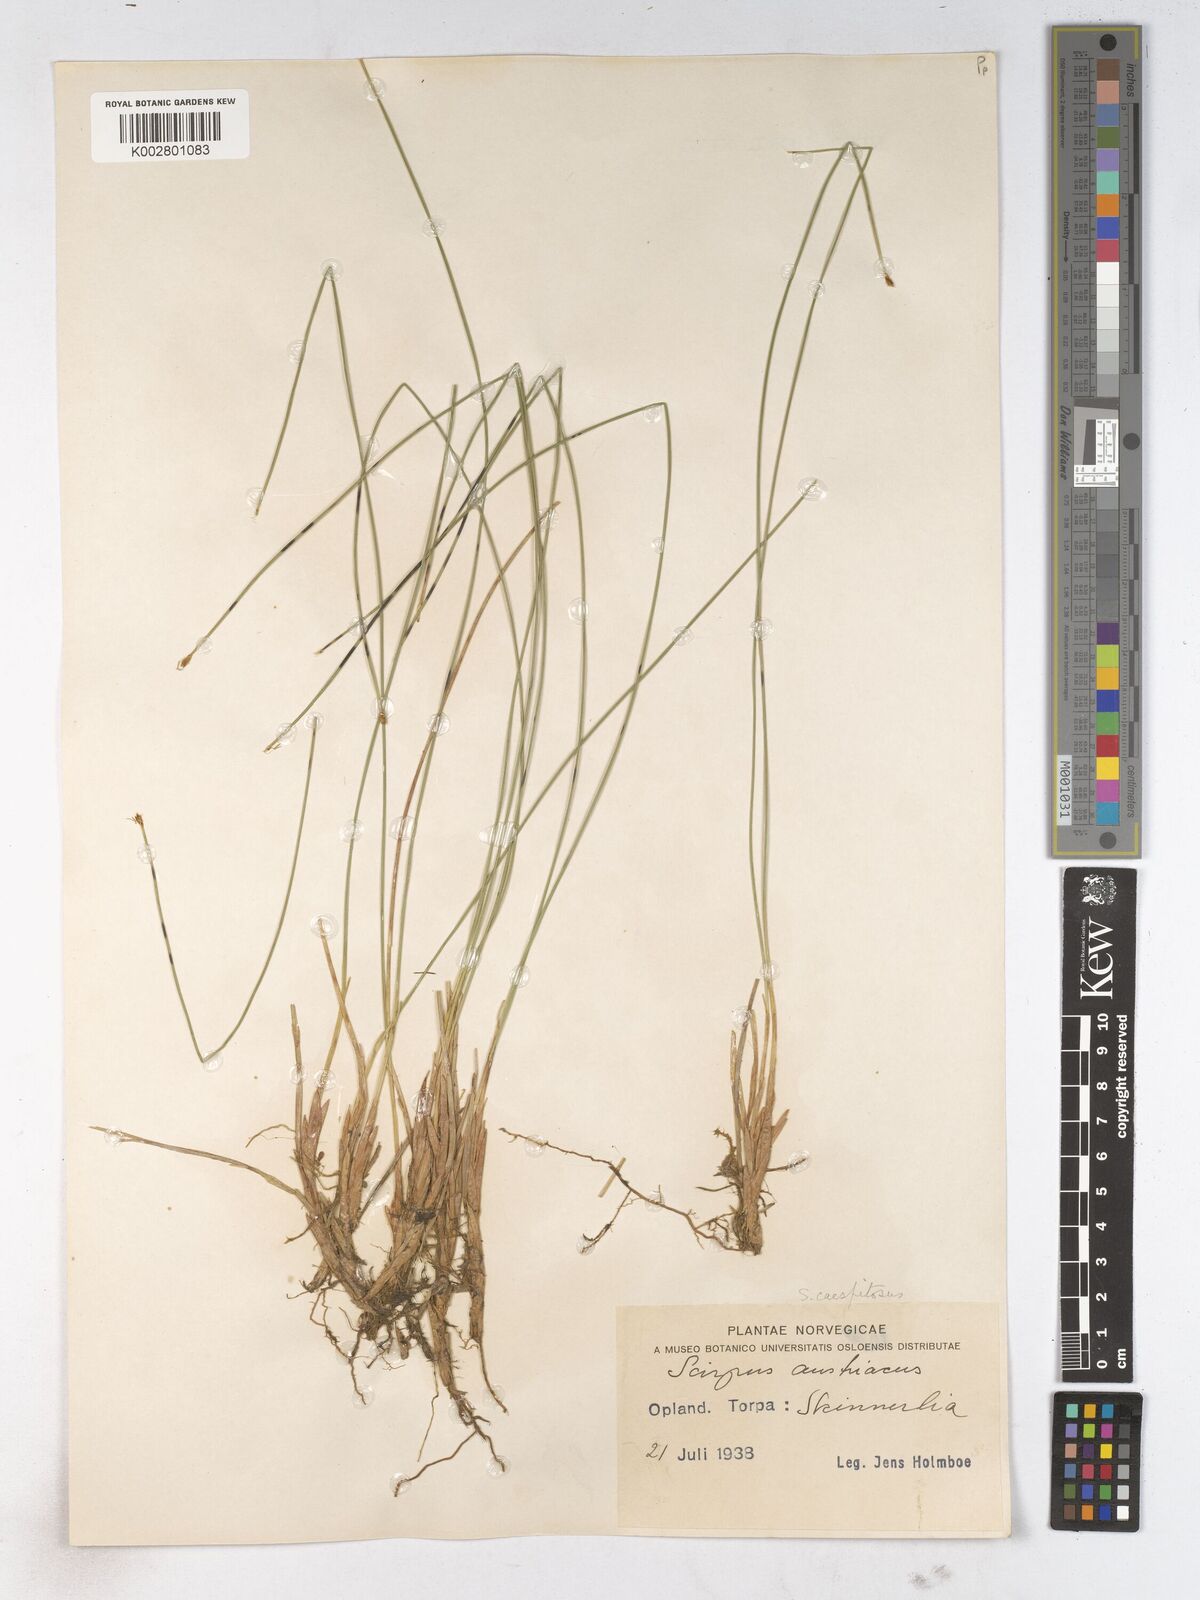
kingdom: Plantae
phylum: Tracheophyta
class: Liliopsida
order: Poales
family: Cyperaceae
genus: Trichophorum
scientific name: Trichophorum cespitosum
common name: Cespitose bulrush
